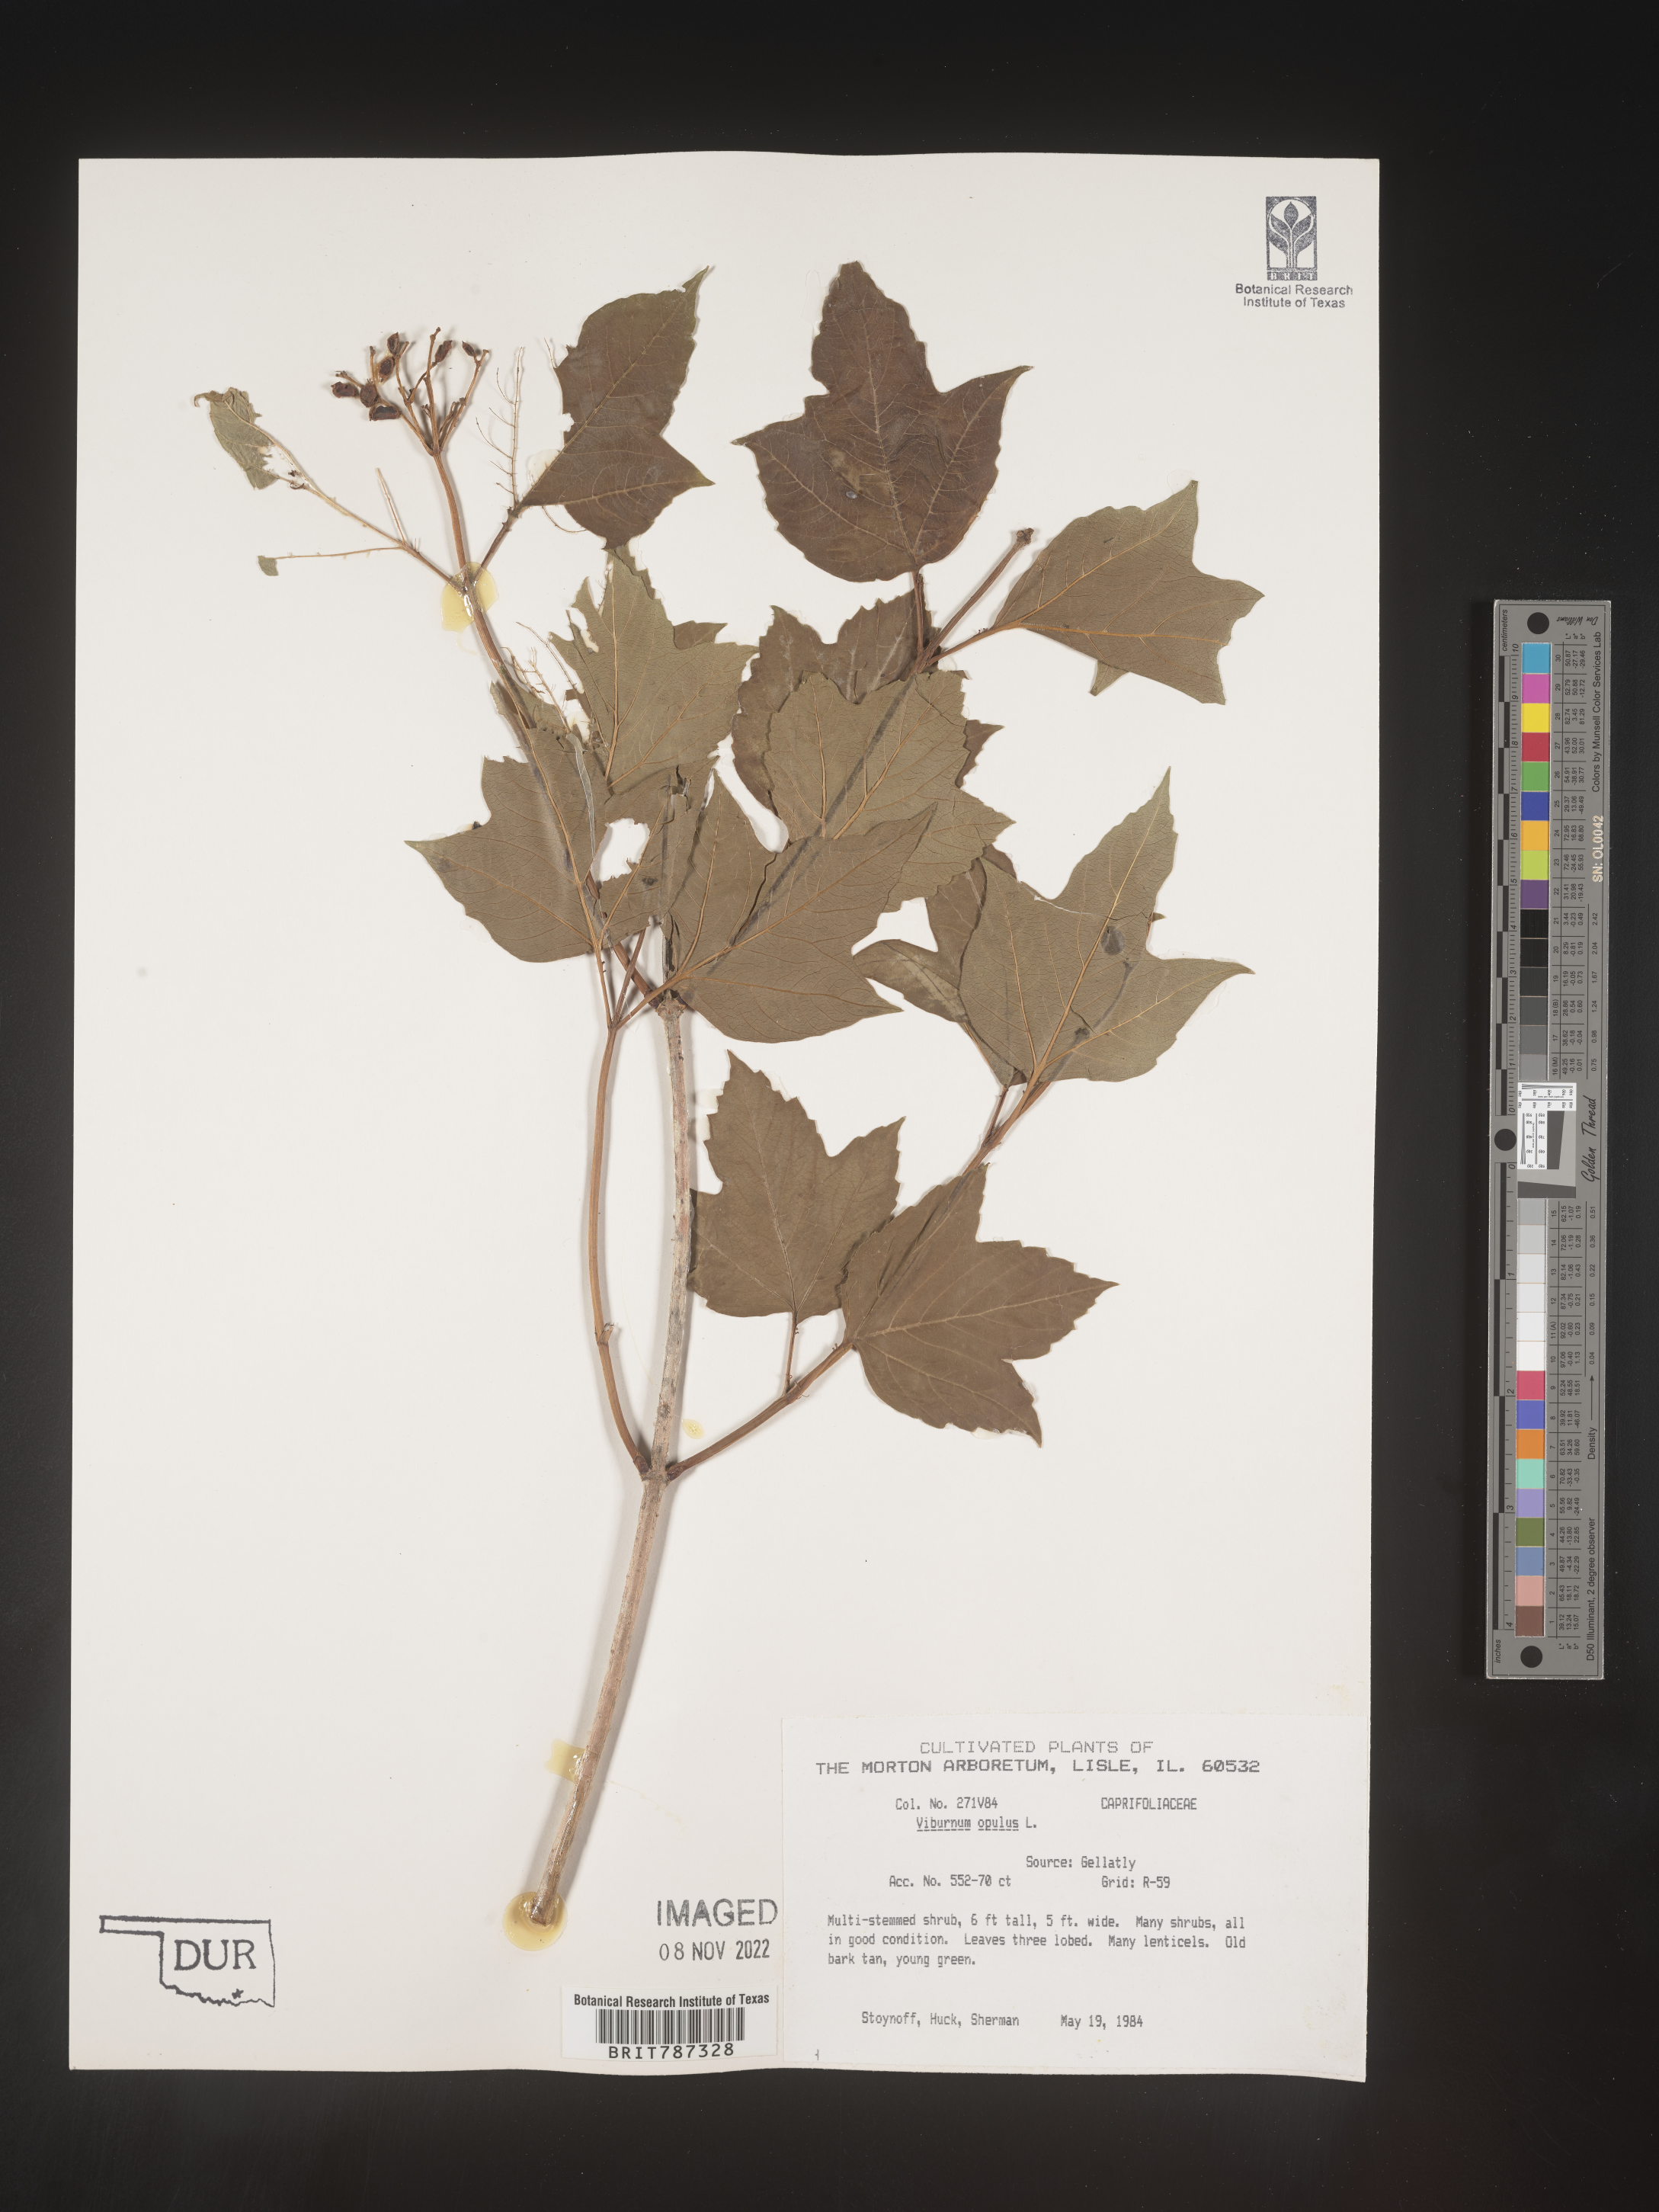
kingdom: Plantae
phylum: Tracheophyta
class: Magnoliopsida
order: Dipsacales
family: Viburnaceae
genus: Viburnum
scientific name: Viburnum
